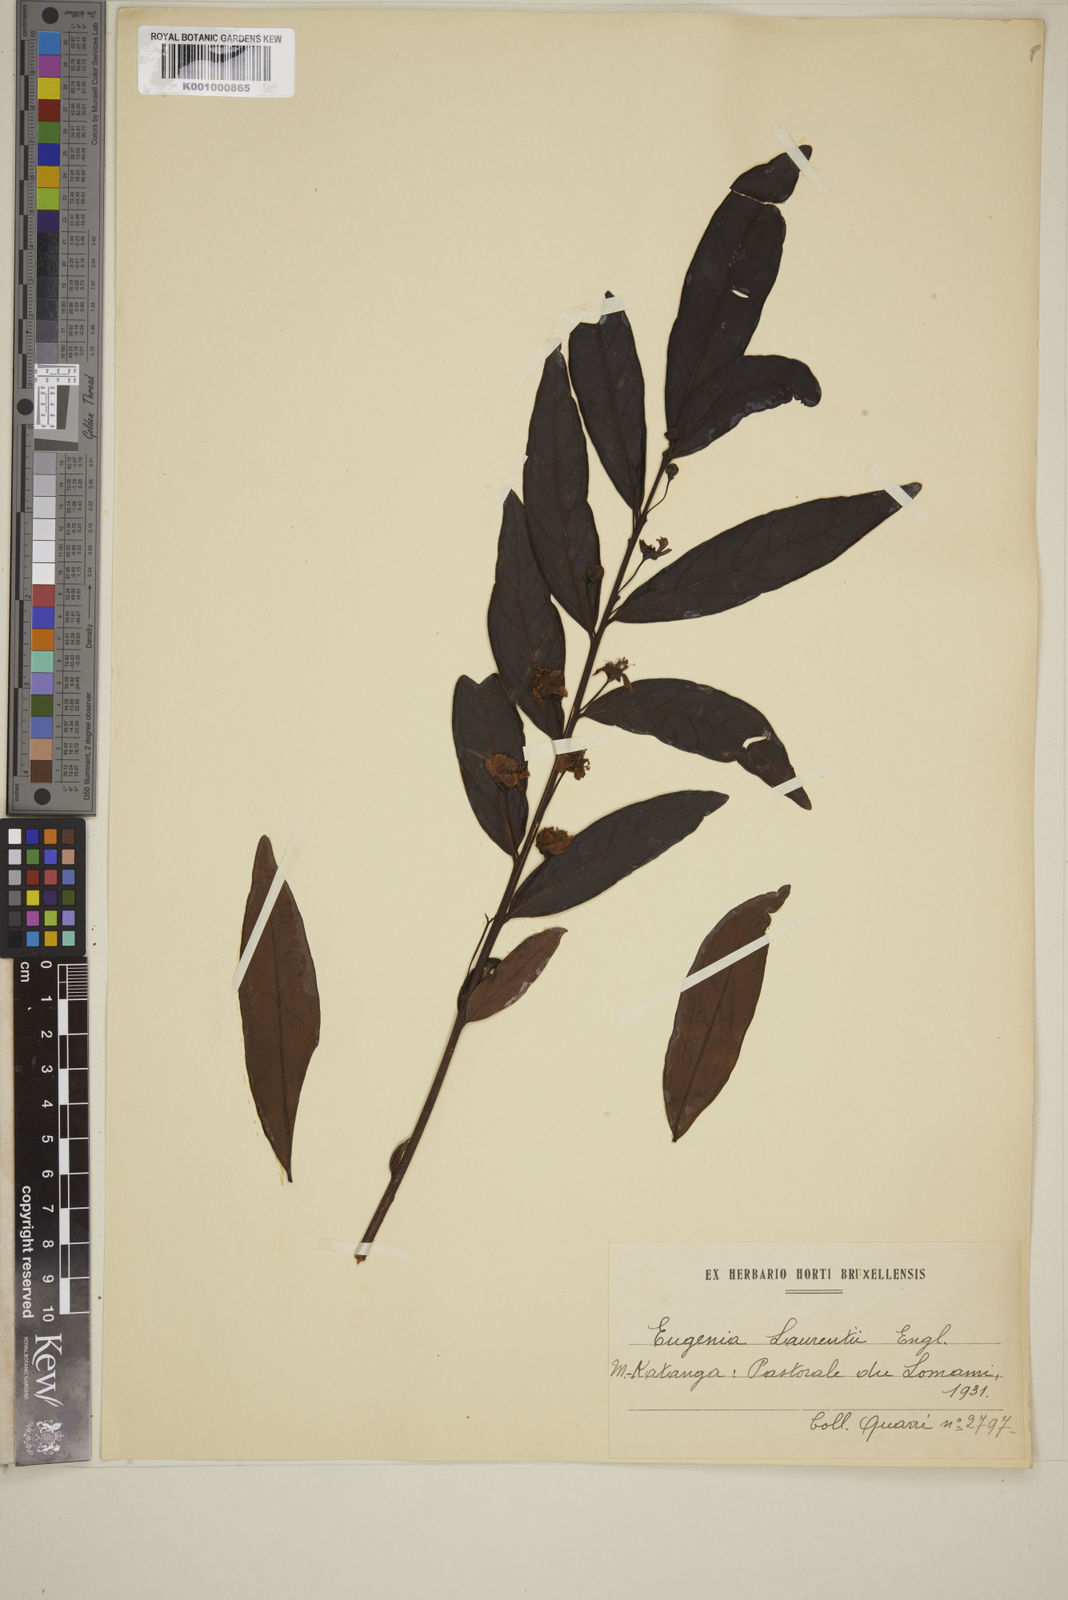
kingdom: Plantae
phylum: Tracheophyta
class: Magnoliopsida
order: Myrtales
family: Myrtaceae
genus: Eugenia
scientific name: Eugenia malangensis
